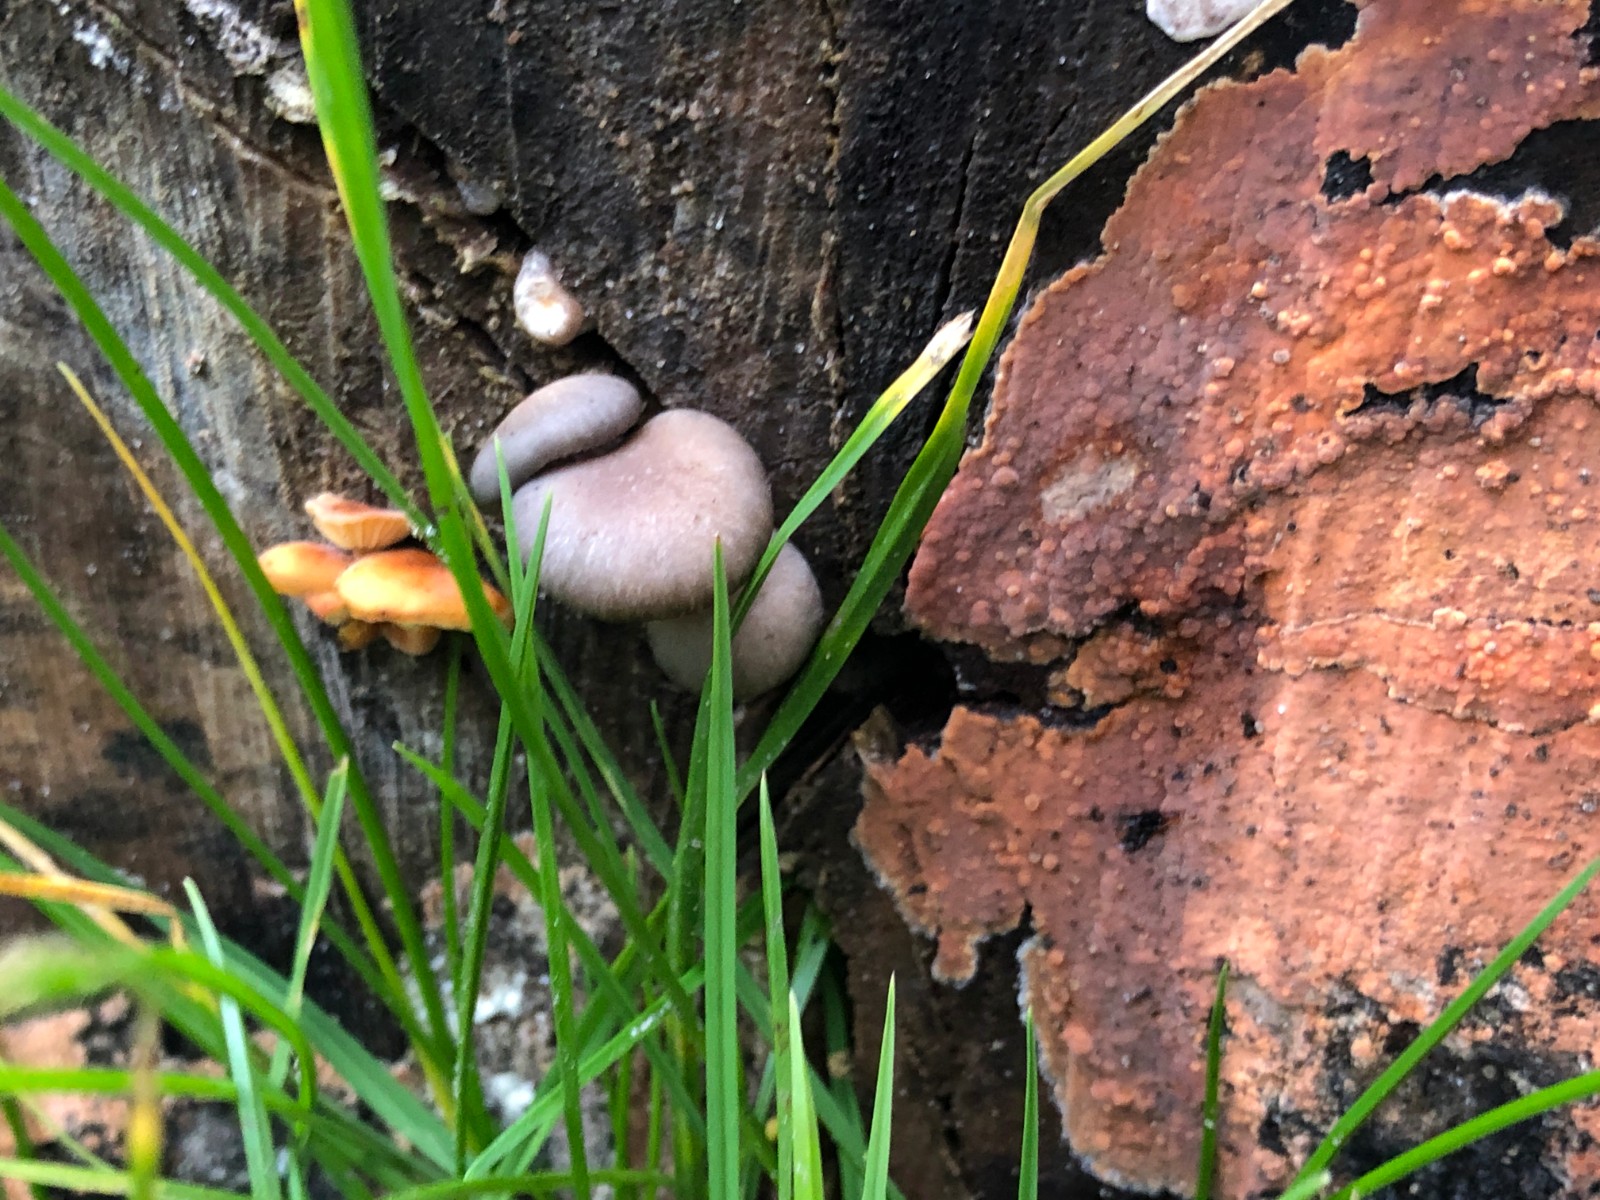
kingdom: Fungi
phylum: Basidiomycota
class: Agaricomycetes
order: Agaricales
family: Pleurotaceae
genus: Pleurotus
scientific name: Pleurotus ostreatus
